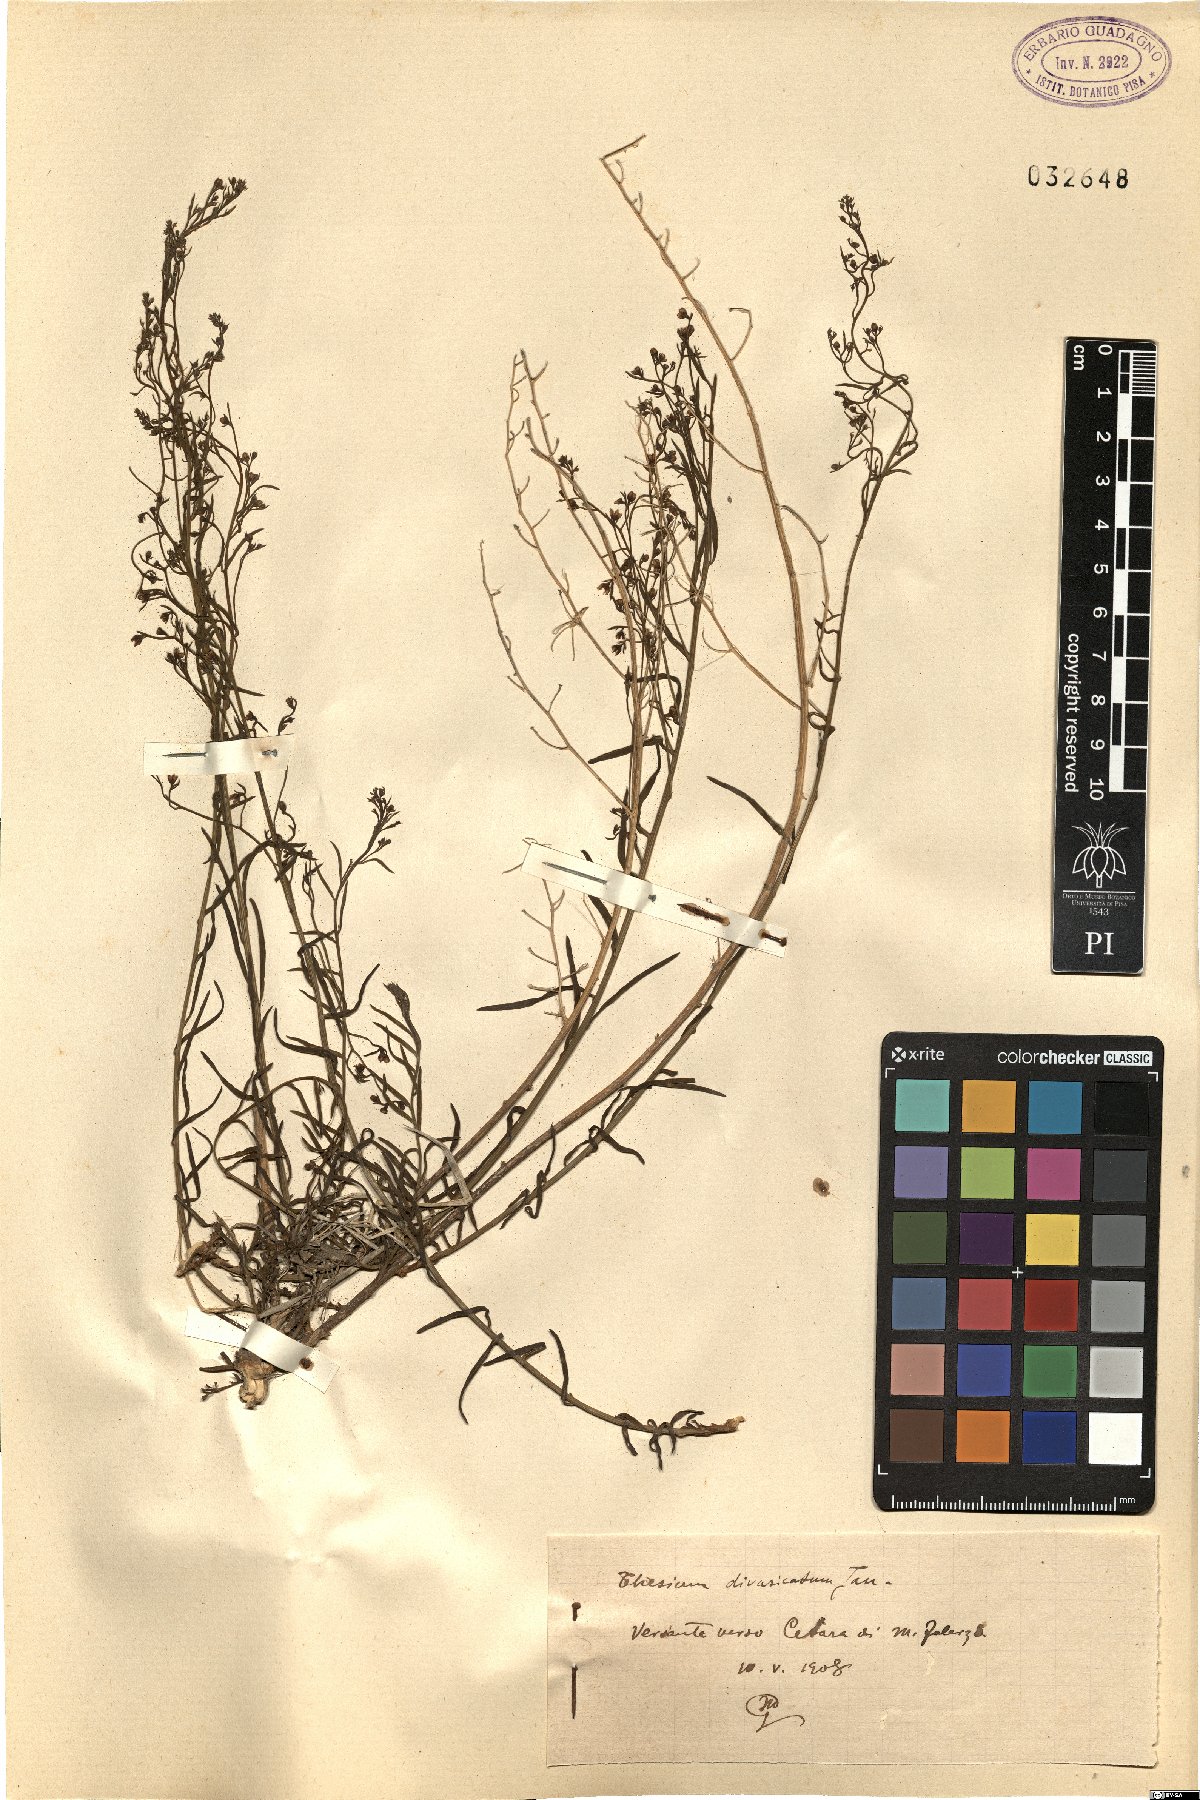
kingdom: Plantae
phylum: Tracheophyta
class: Magnoliopsida
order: Santalales
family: Thesiaceae
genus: Thesium
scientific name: Thesium divaricatum
